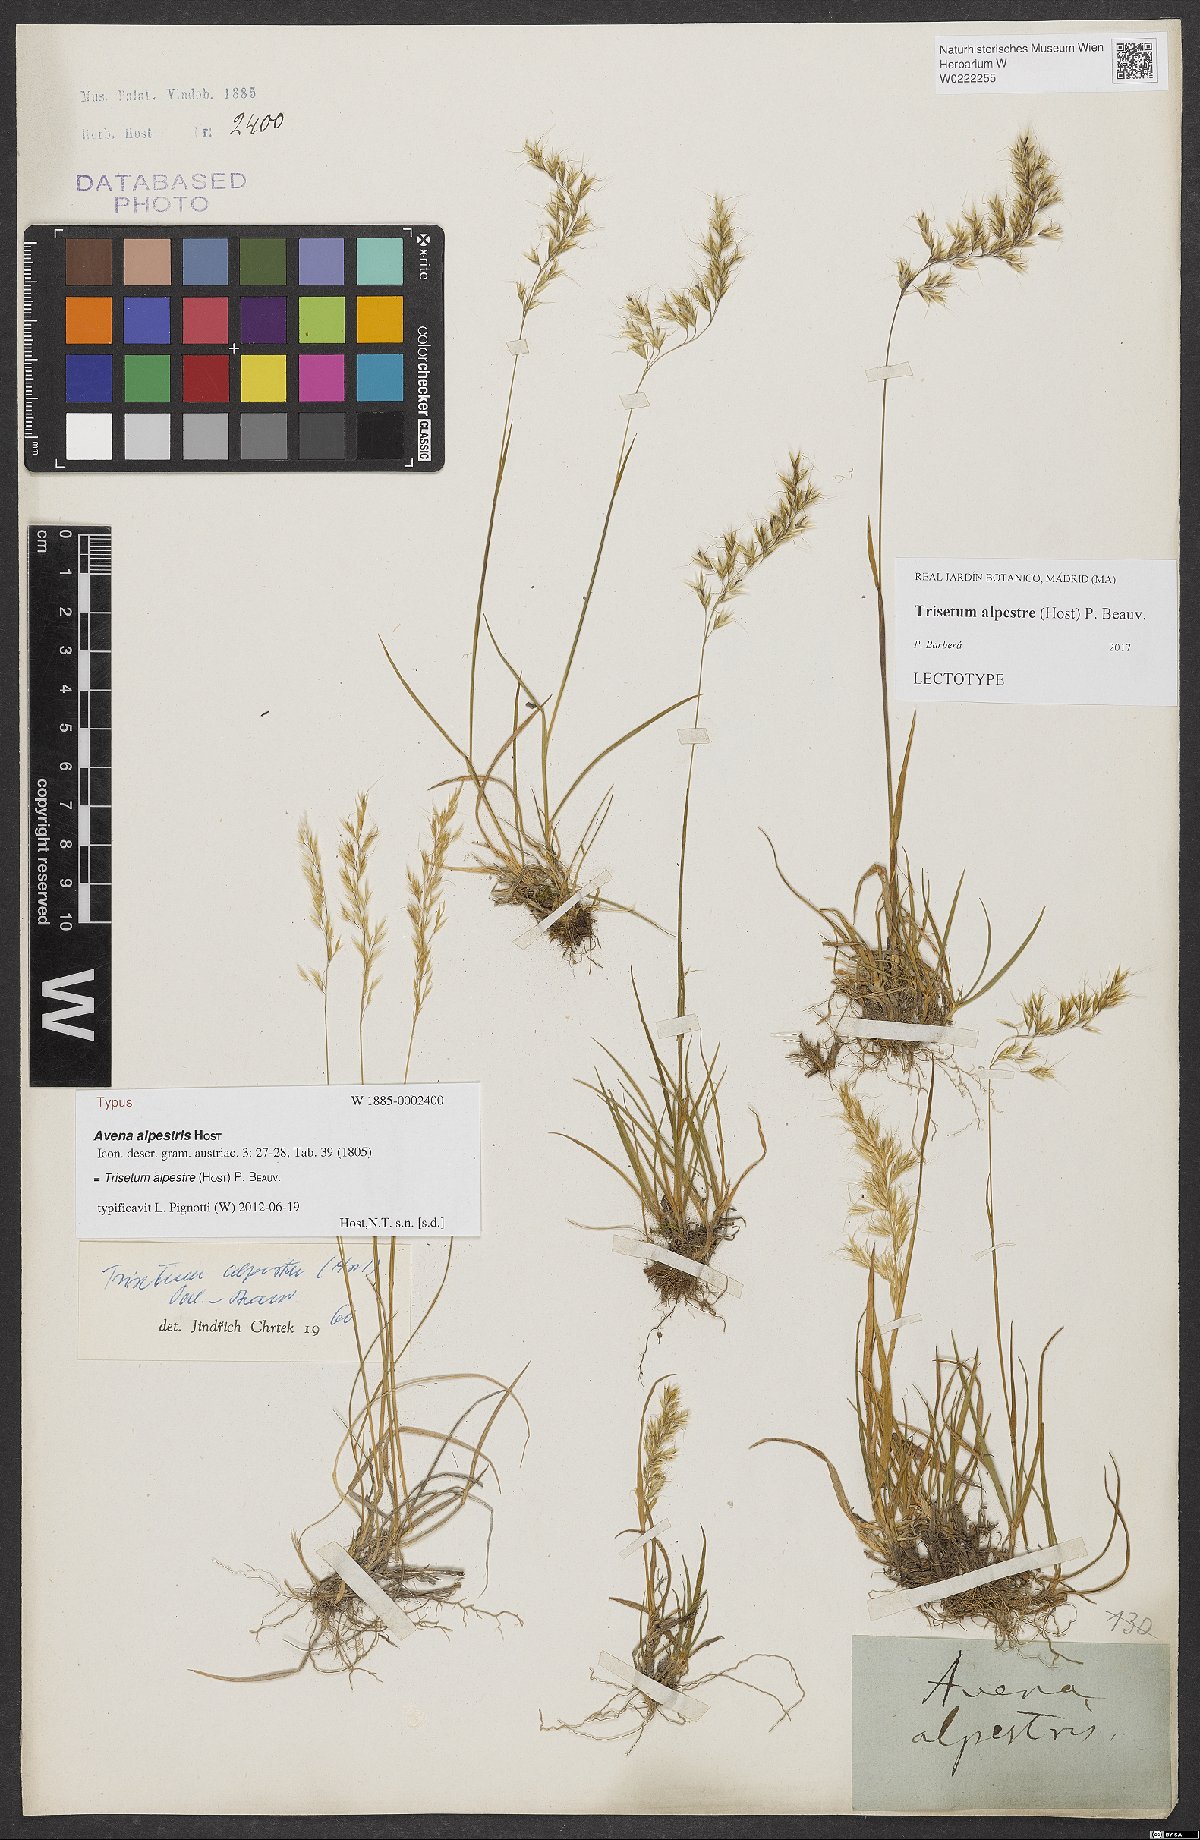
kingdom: Plantae
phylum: Tracheophyta
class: Liliopsida
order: Poales
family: Poaceae
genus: Trisetum
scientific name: Trisetum alpestre
